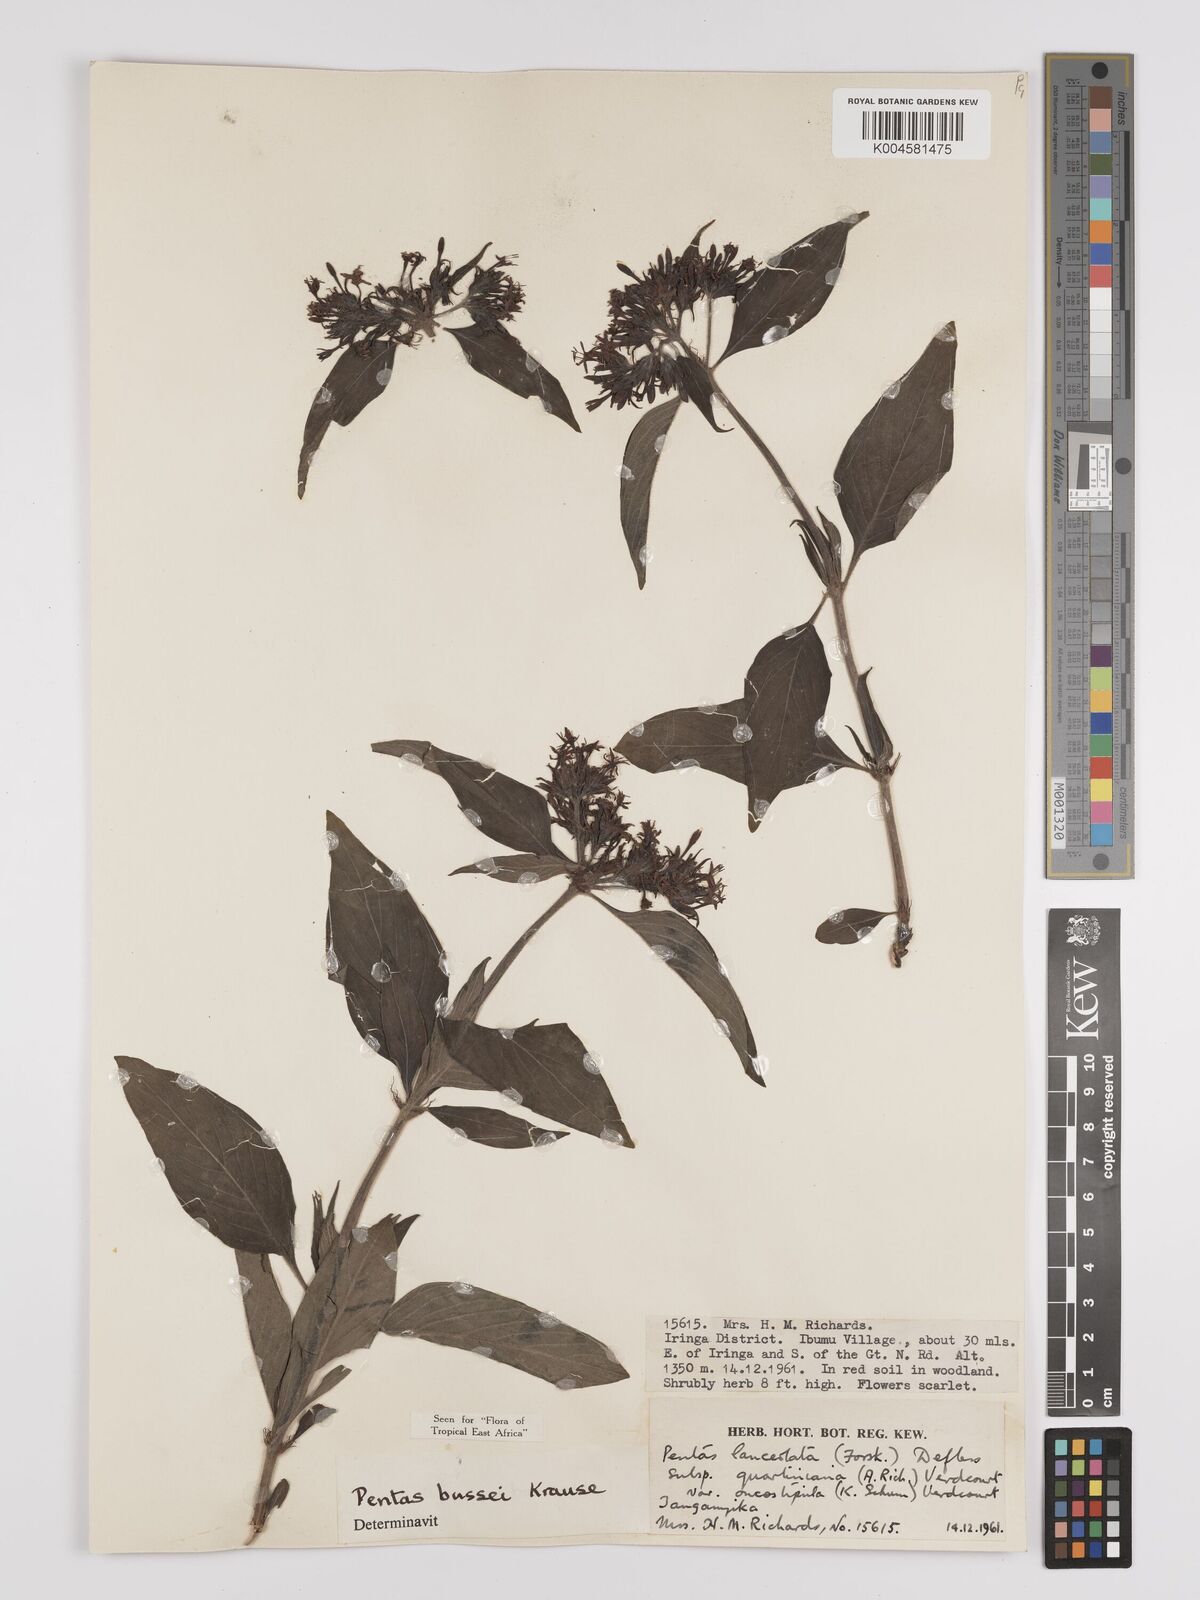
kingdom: Plantae
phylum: Tracheophyta
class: Magnoliopsida
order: Gentianales
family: Rubiaceae
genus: Rhodopentas
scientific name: Rhodopentas bussei
